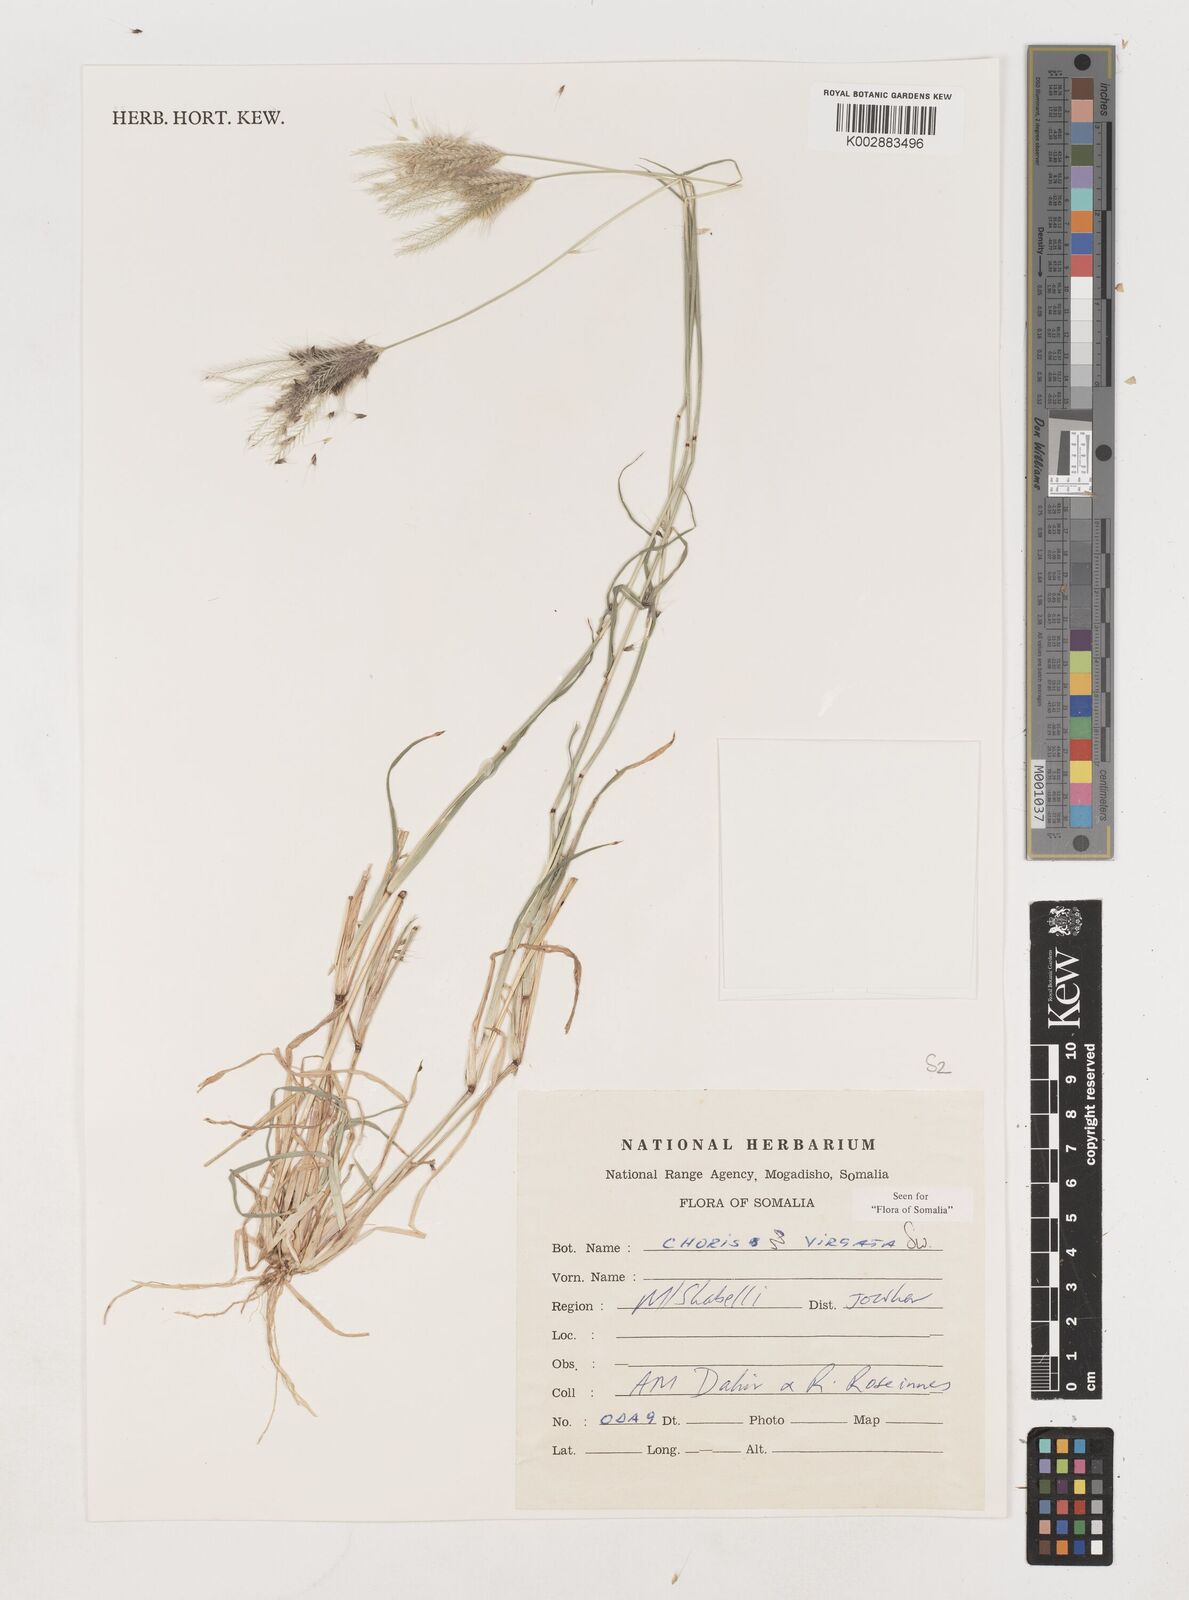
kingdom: Plantae
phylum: Tracheophyta
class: Liliopsida
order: Poales
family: Poaceae
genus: Chloris
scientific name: Chloris virgata
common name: Feathery rhodes-grass
